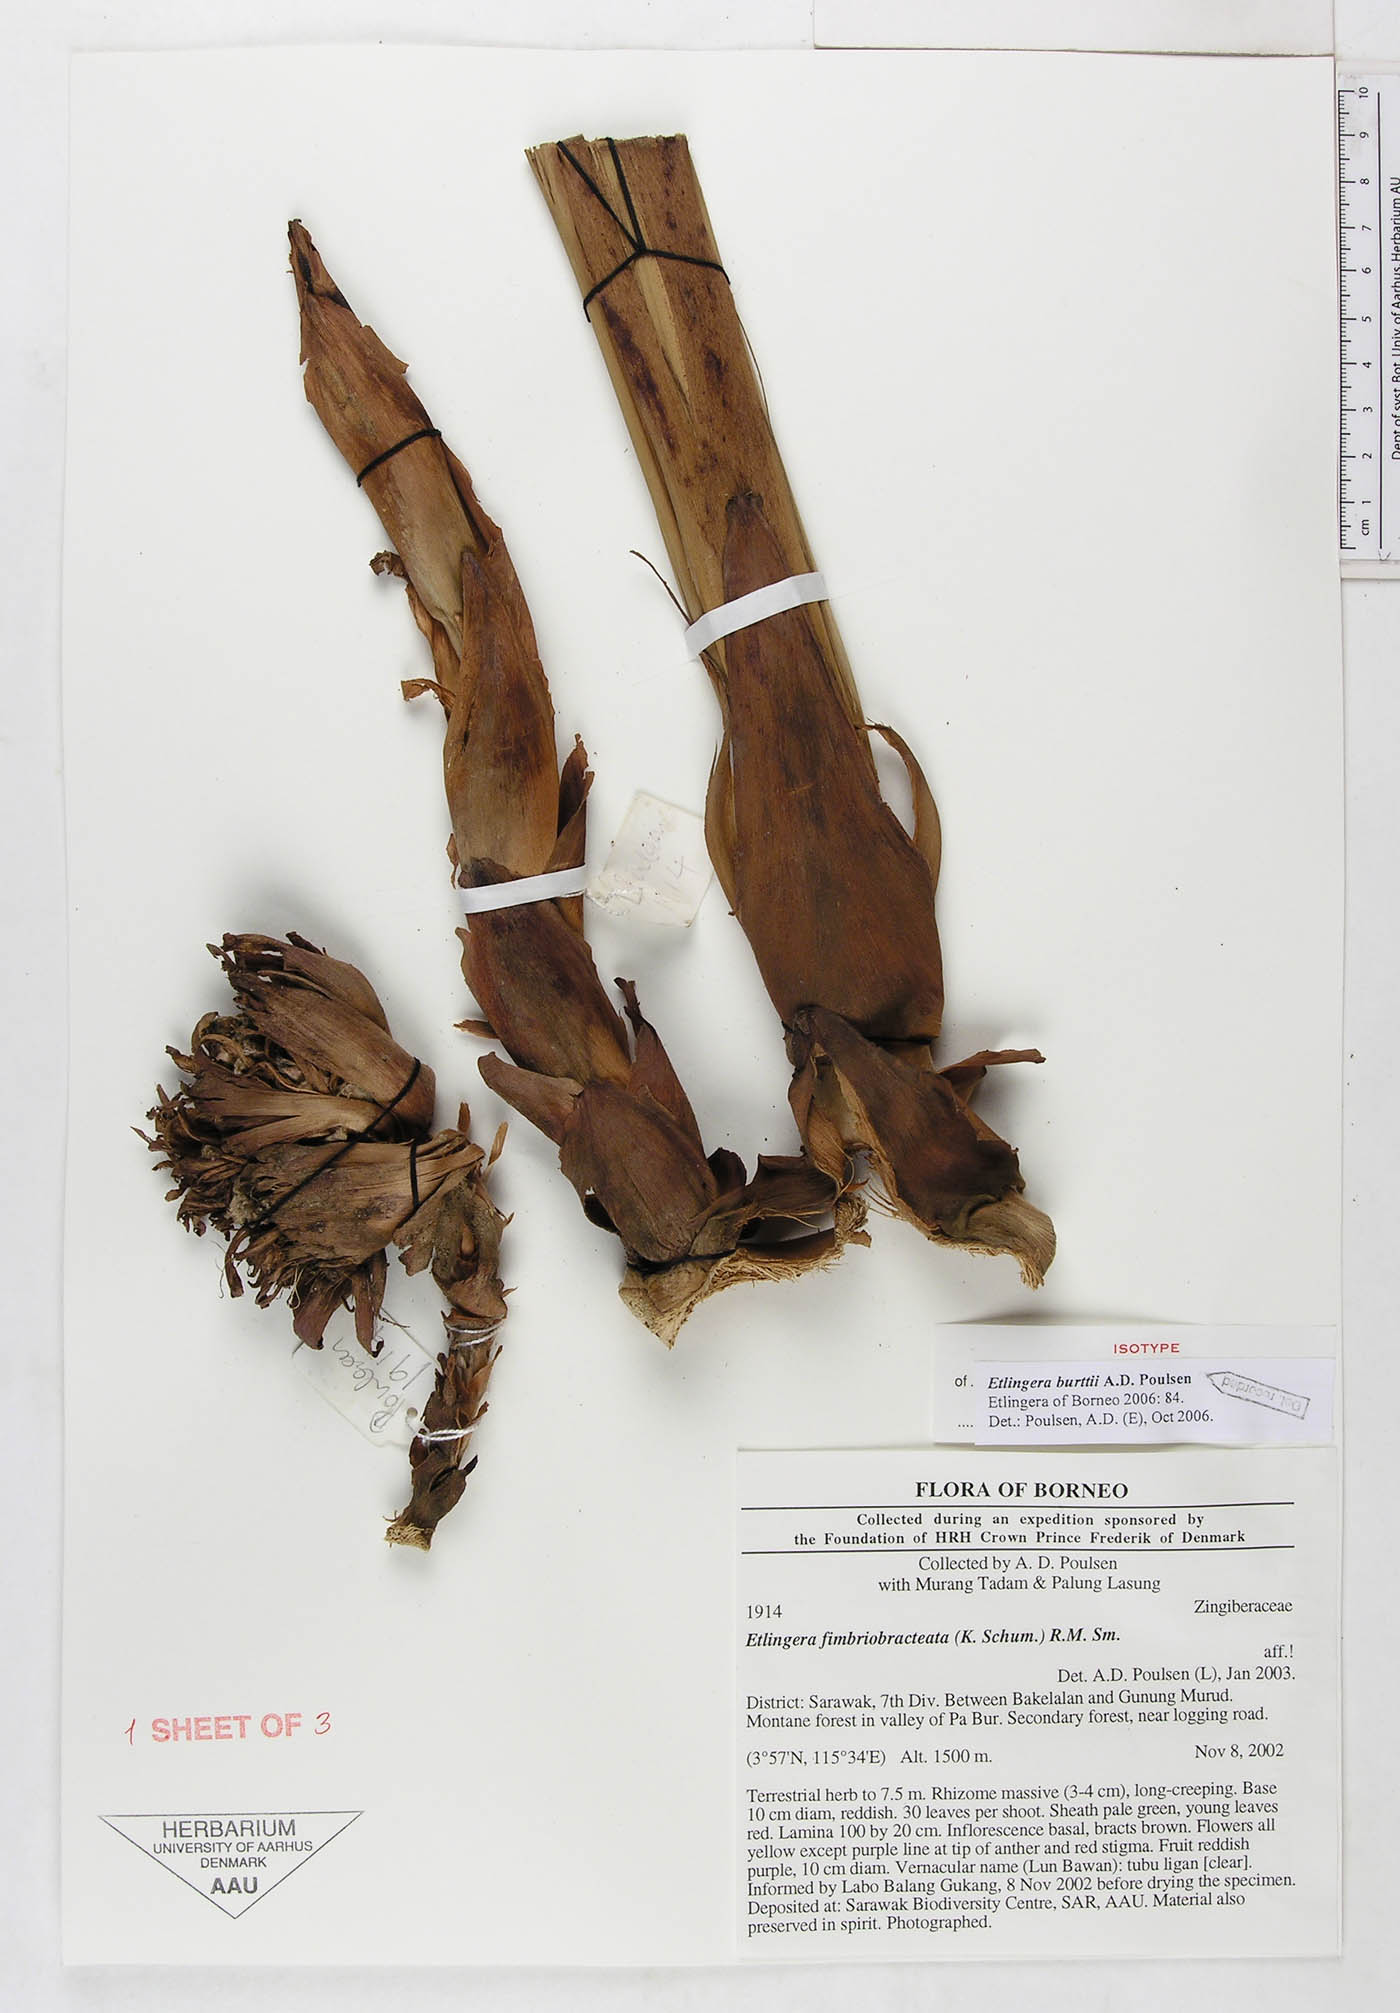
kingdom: Plantae
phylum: Tracheophyta
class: Liliopsida
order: Zingiberales
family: Zingiberaceae
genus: Etlingera
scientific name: Etlingera burttii
